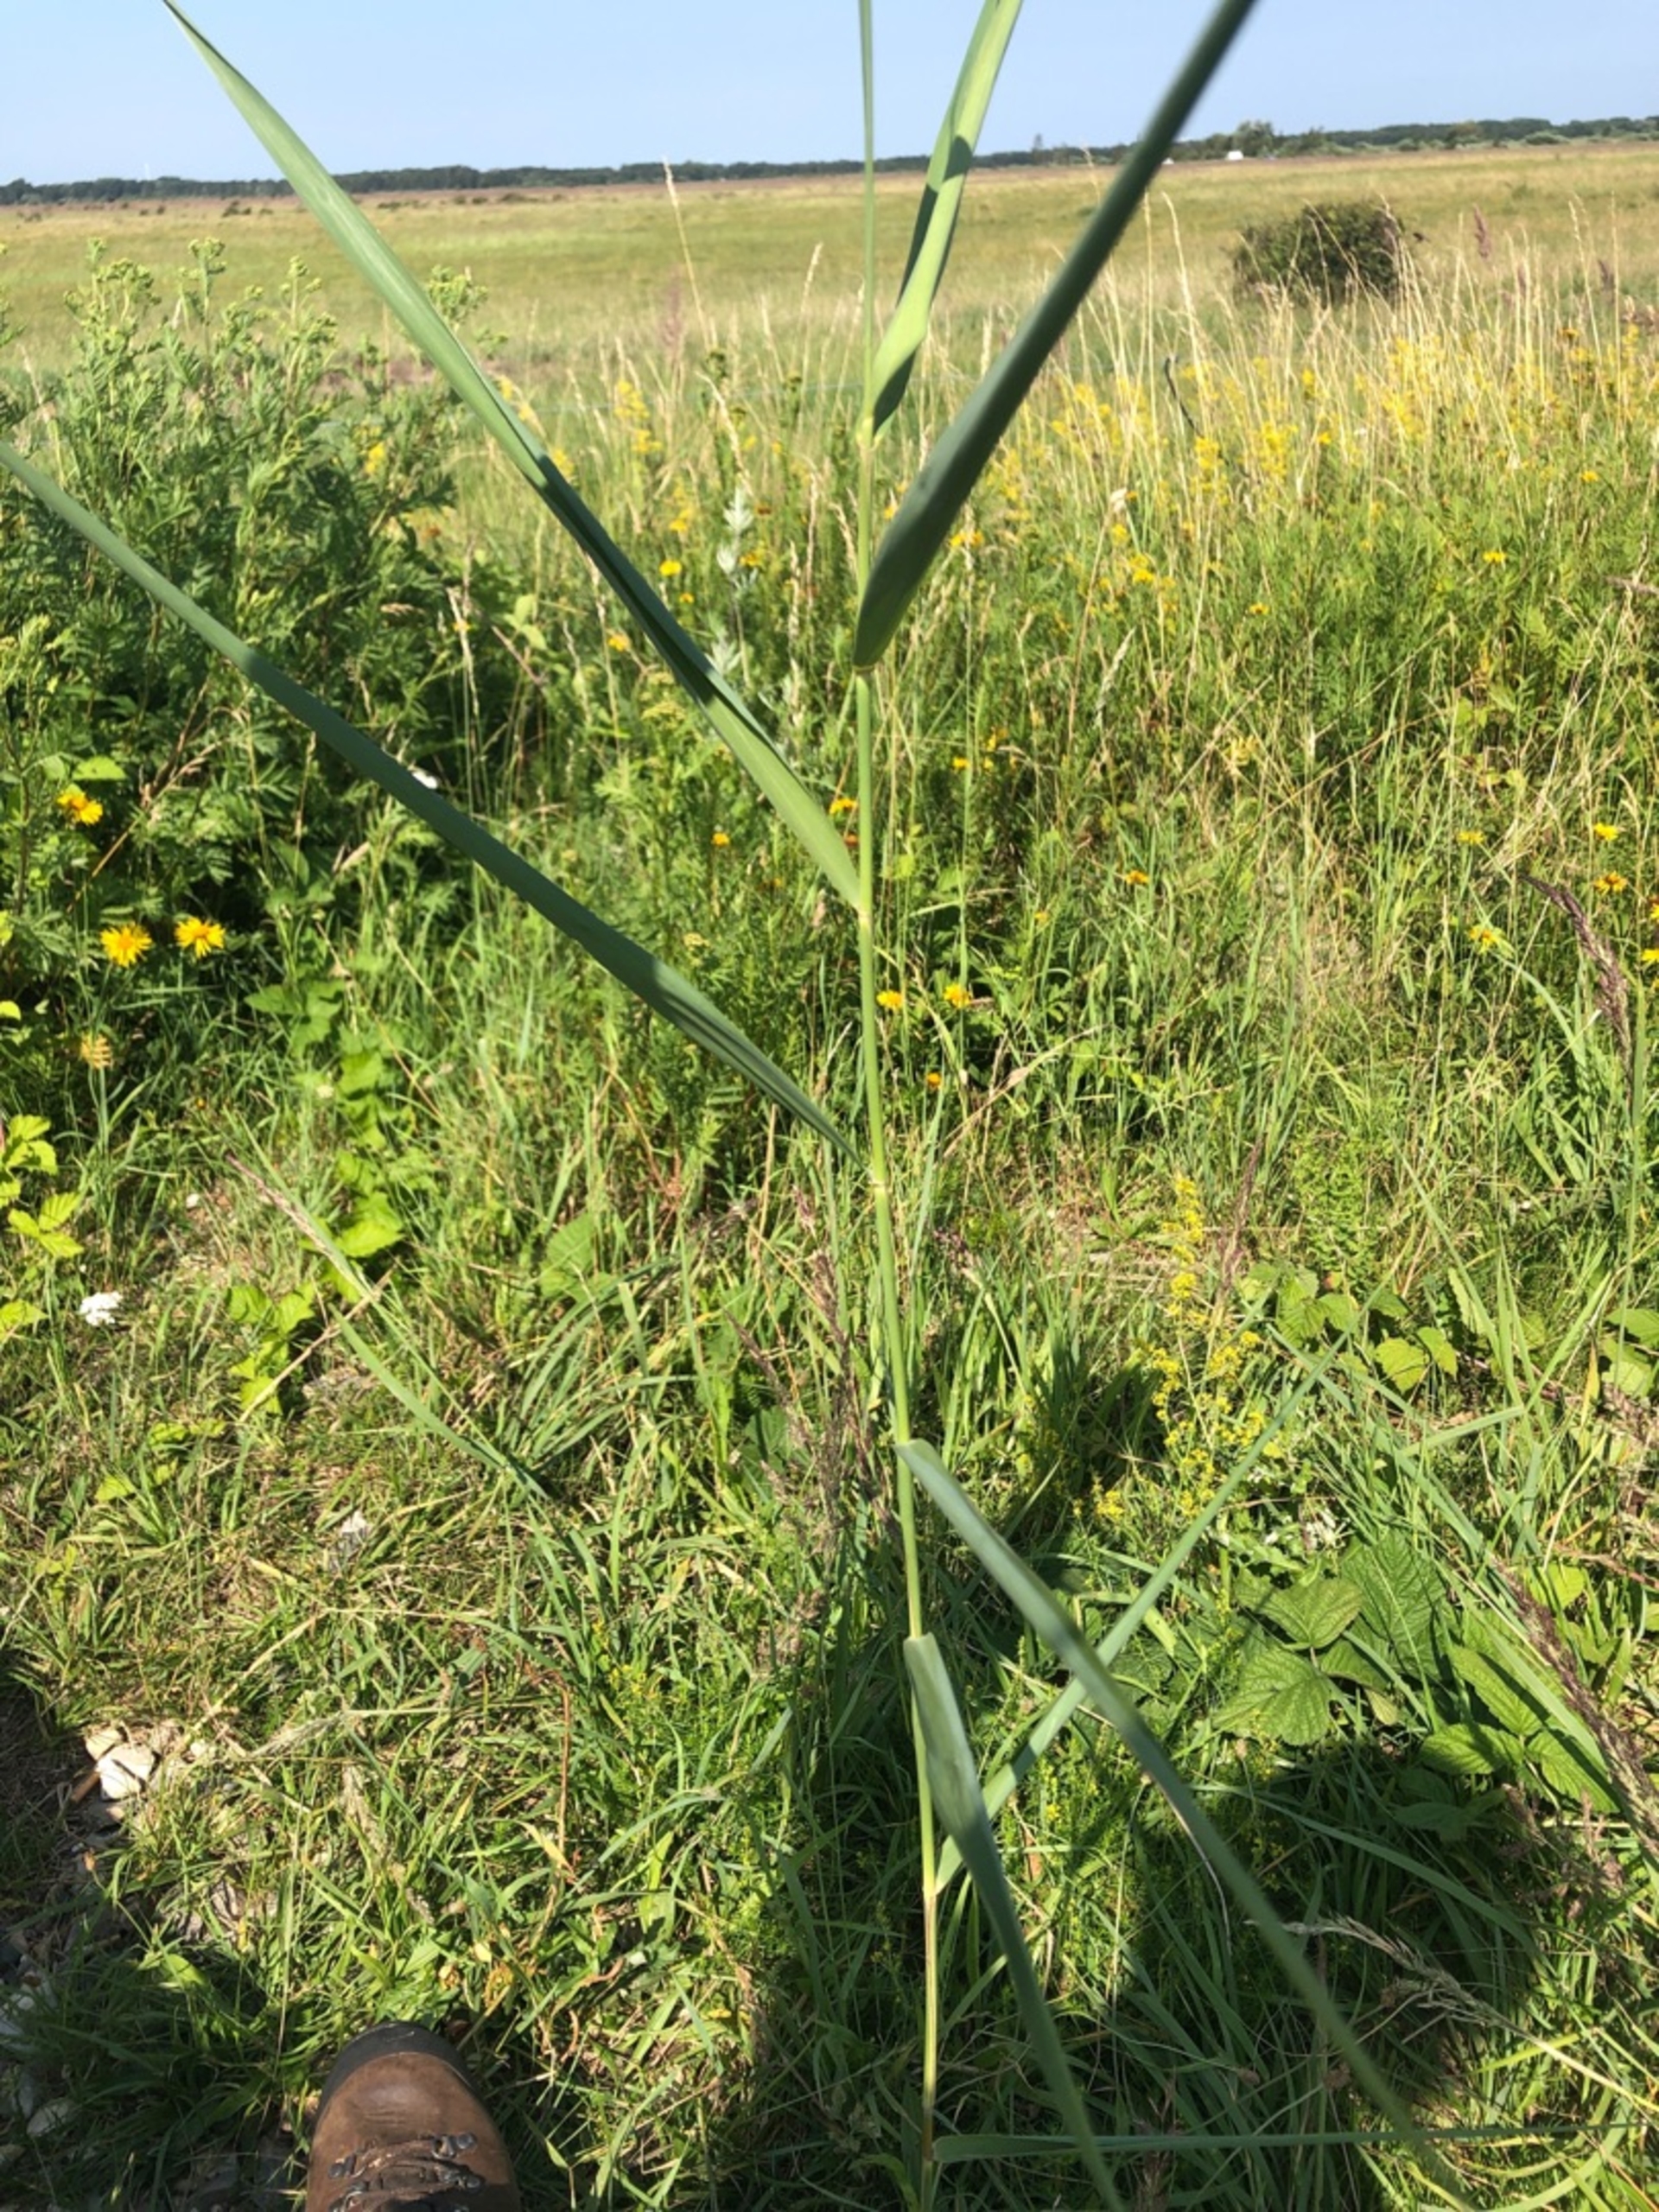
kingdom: Plantae
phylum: Tracheophyta
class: Liliopsida
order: Poales
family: Poaceae
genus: Phragmites
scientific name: Phragmites australis
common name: Tagrør
